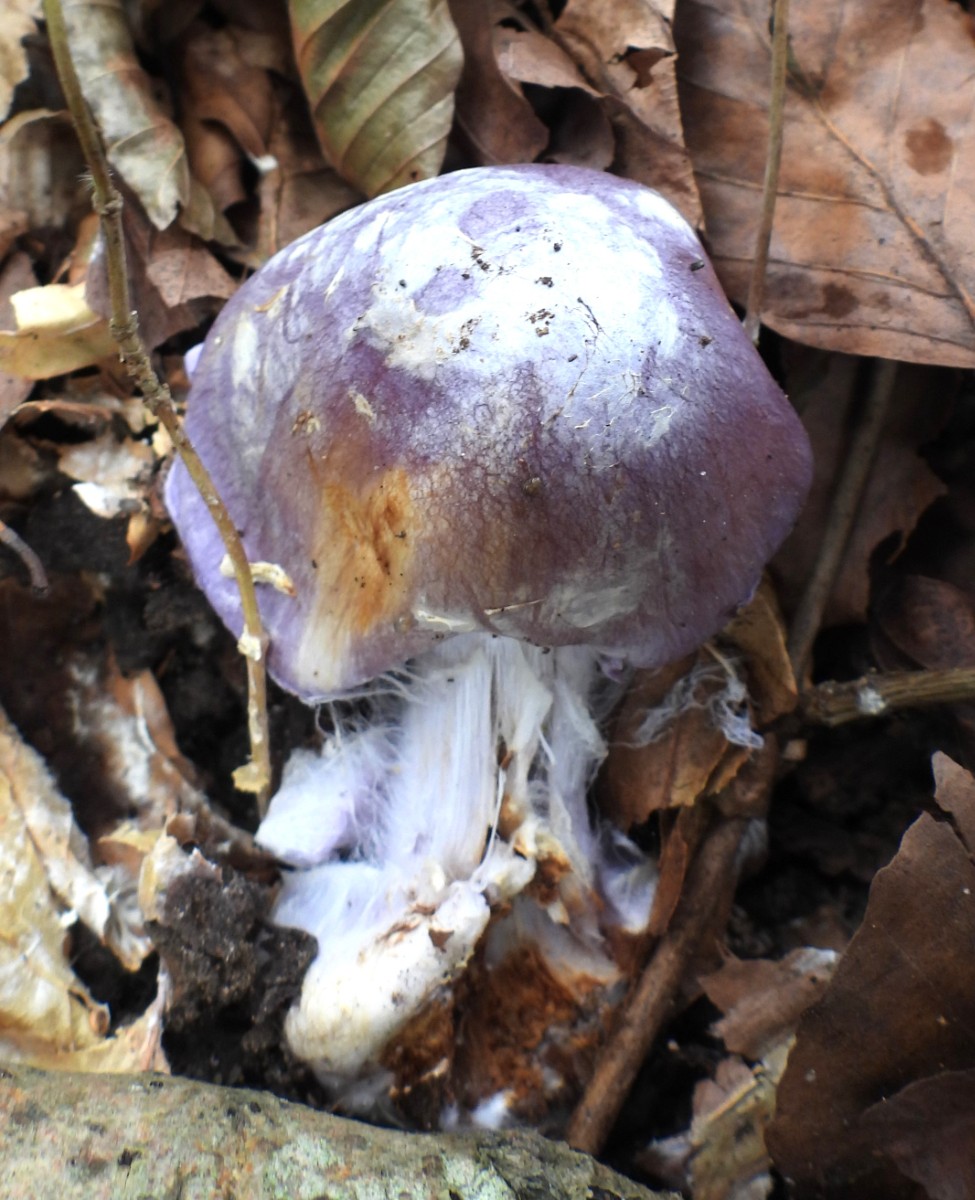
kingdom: Fungi
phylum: Basidiomycota
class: Agaricomycetes
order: Agaricales
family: Cortinariaceae
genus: Cortinarius
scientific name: Cortinarius caerulescens
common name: blåkødet slørhat
